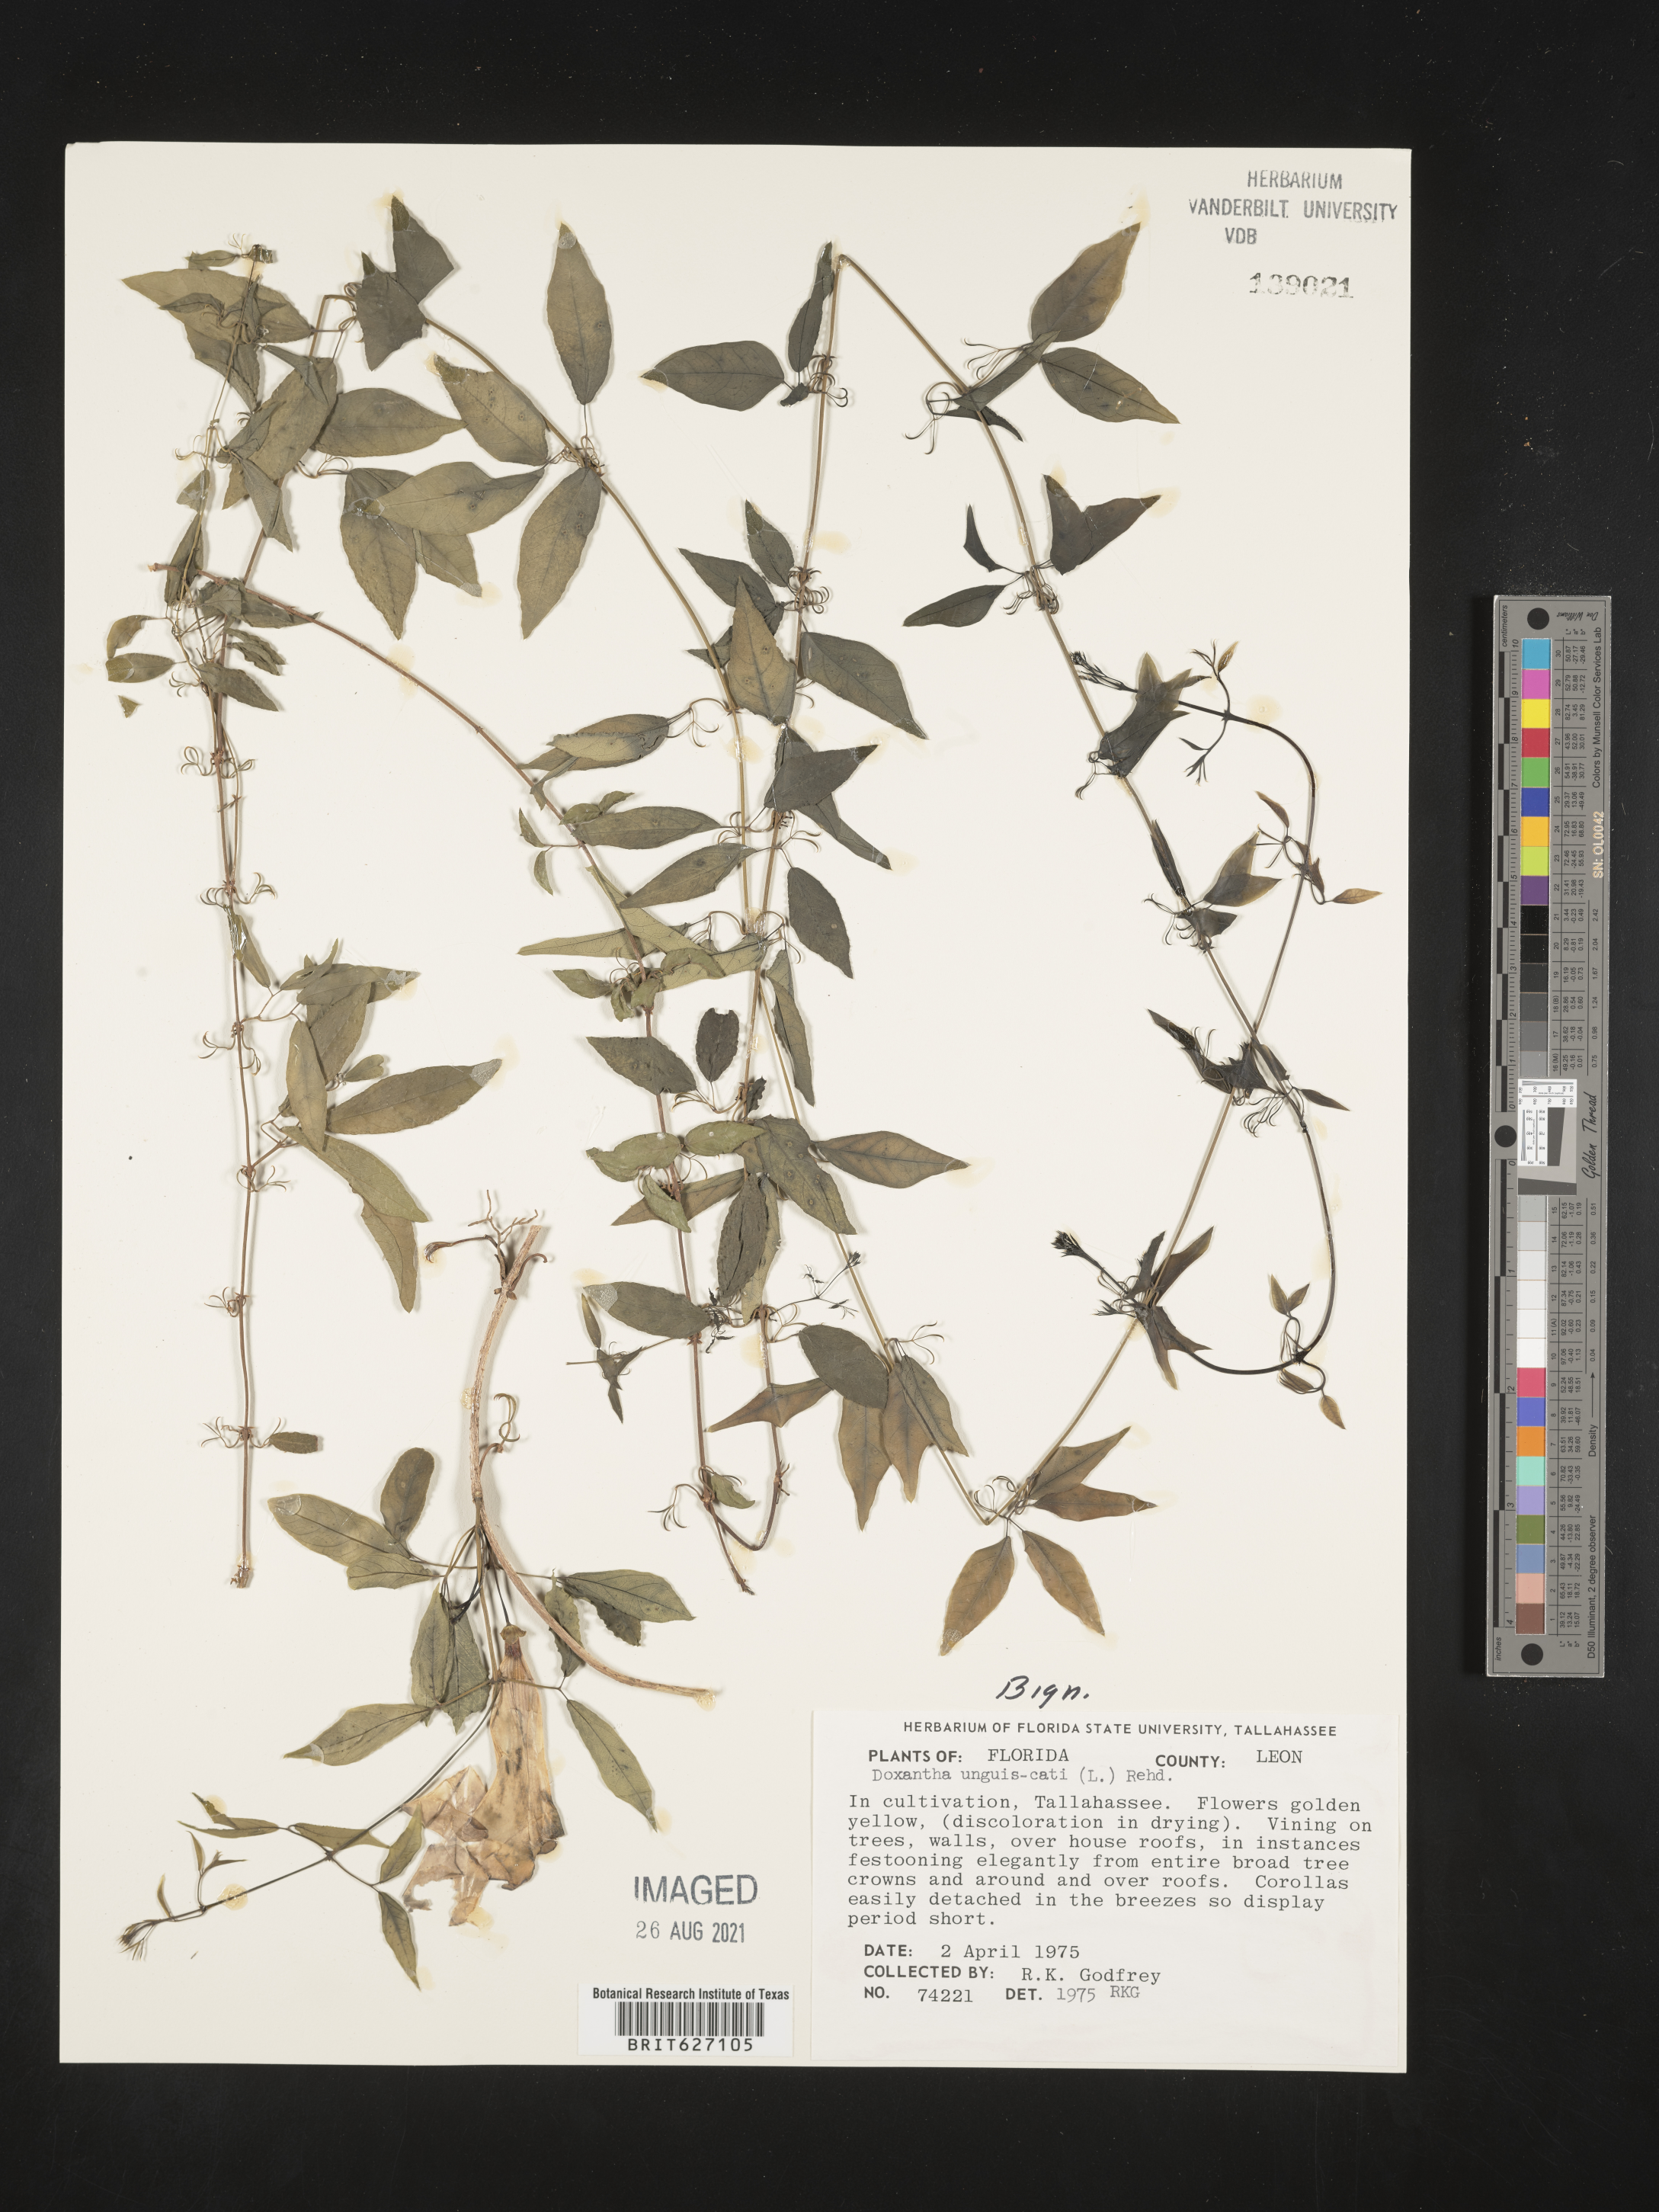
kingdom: Plantae
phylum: Tracheophyta
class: Magnoliopsida
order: Lamiales
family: Bignoniaceae
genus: Dolichandra
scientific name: Dolichandra unguis-cati
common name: Catclaw vine
